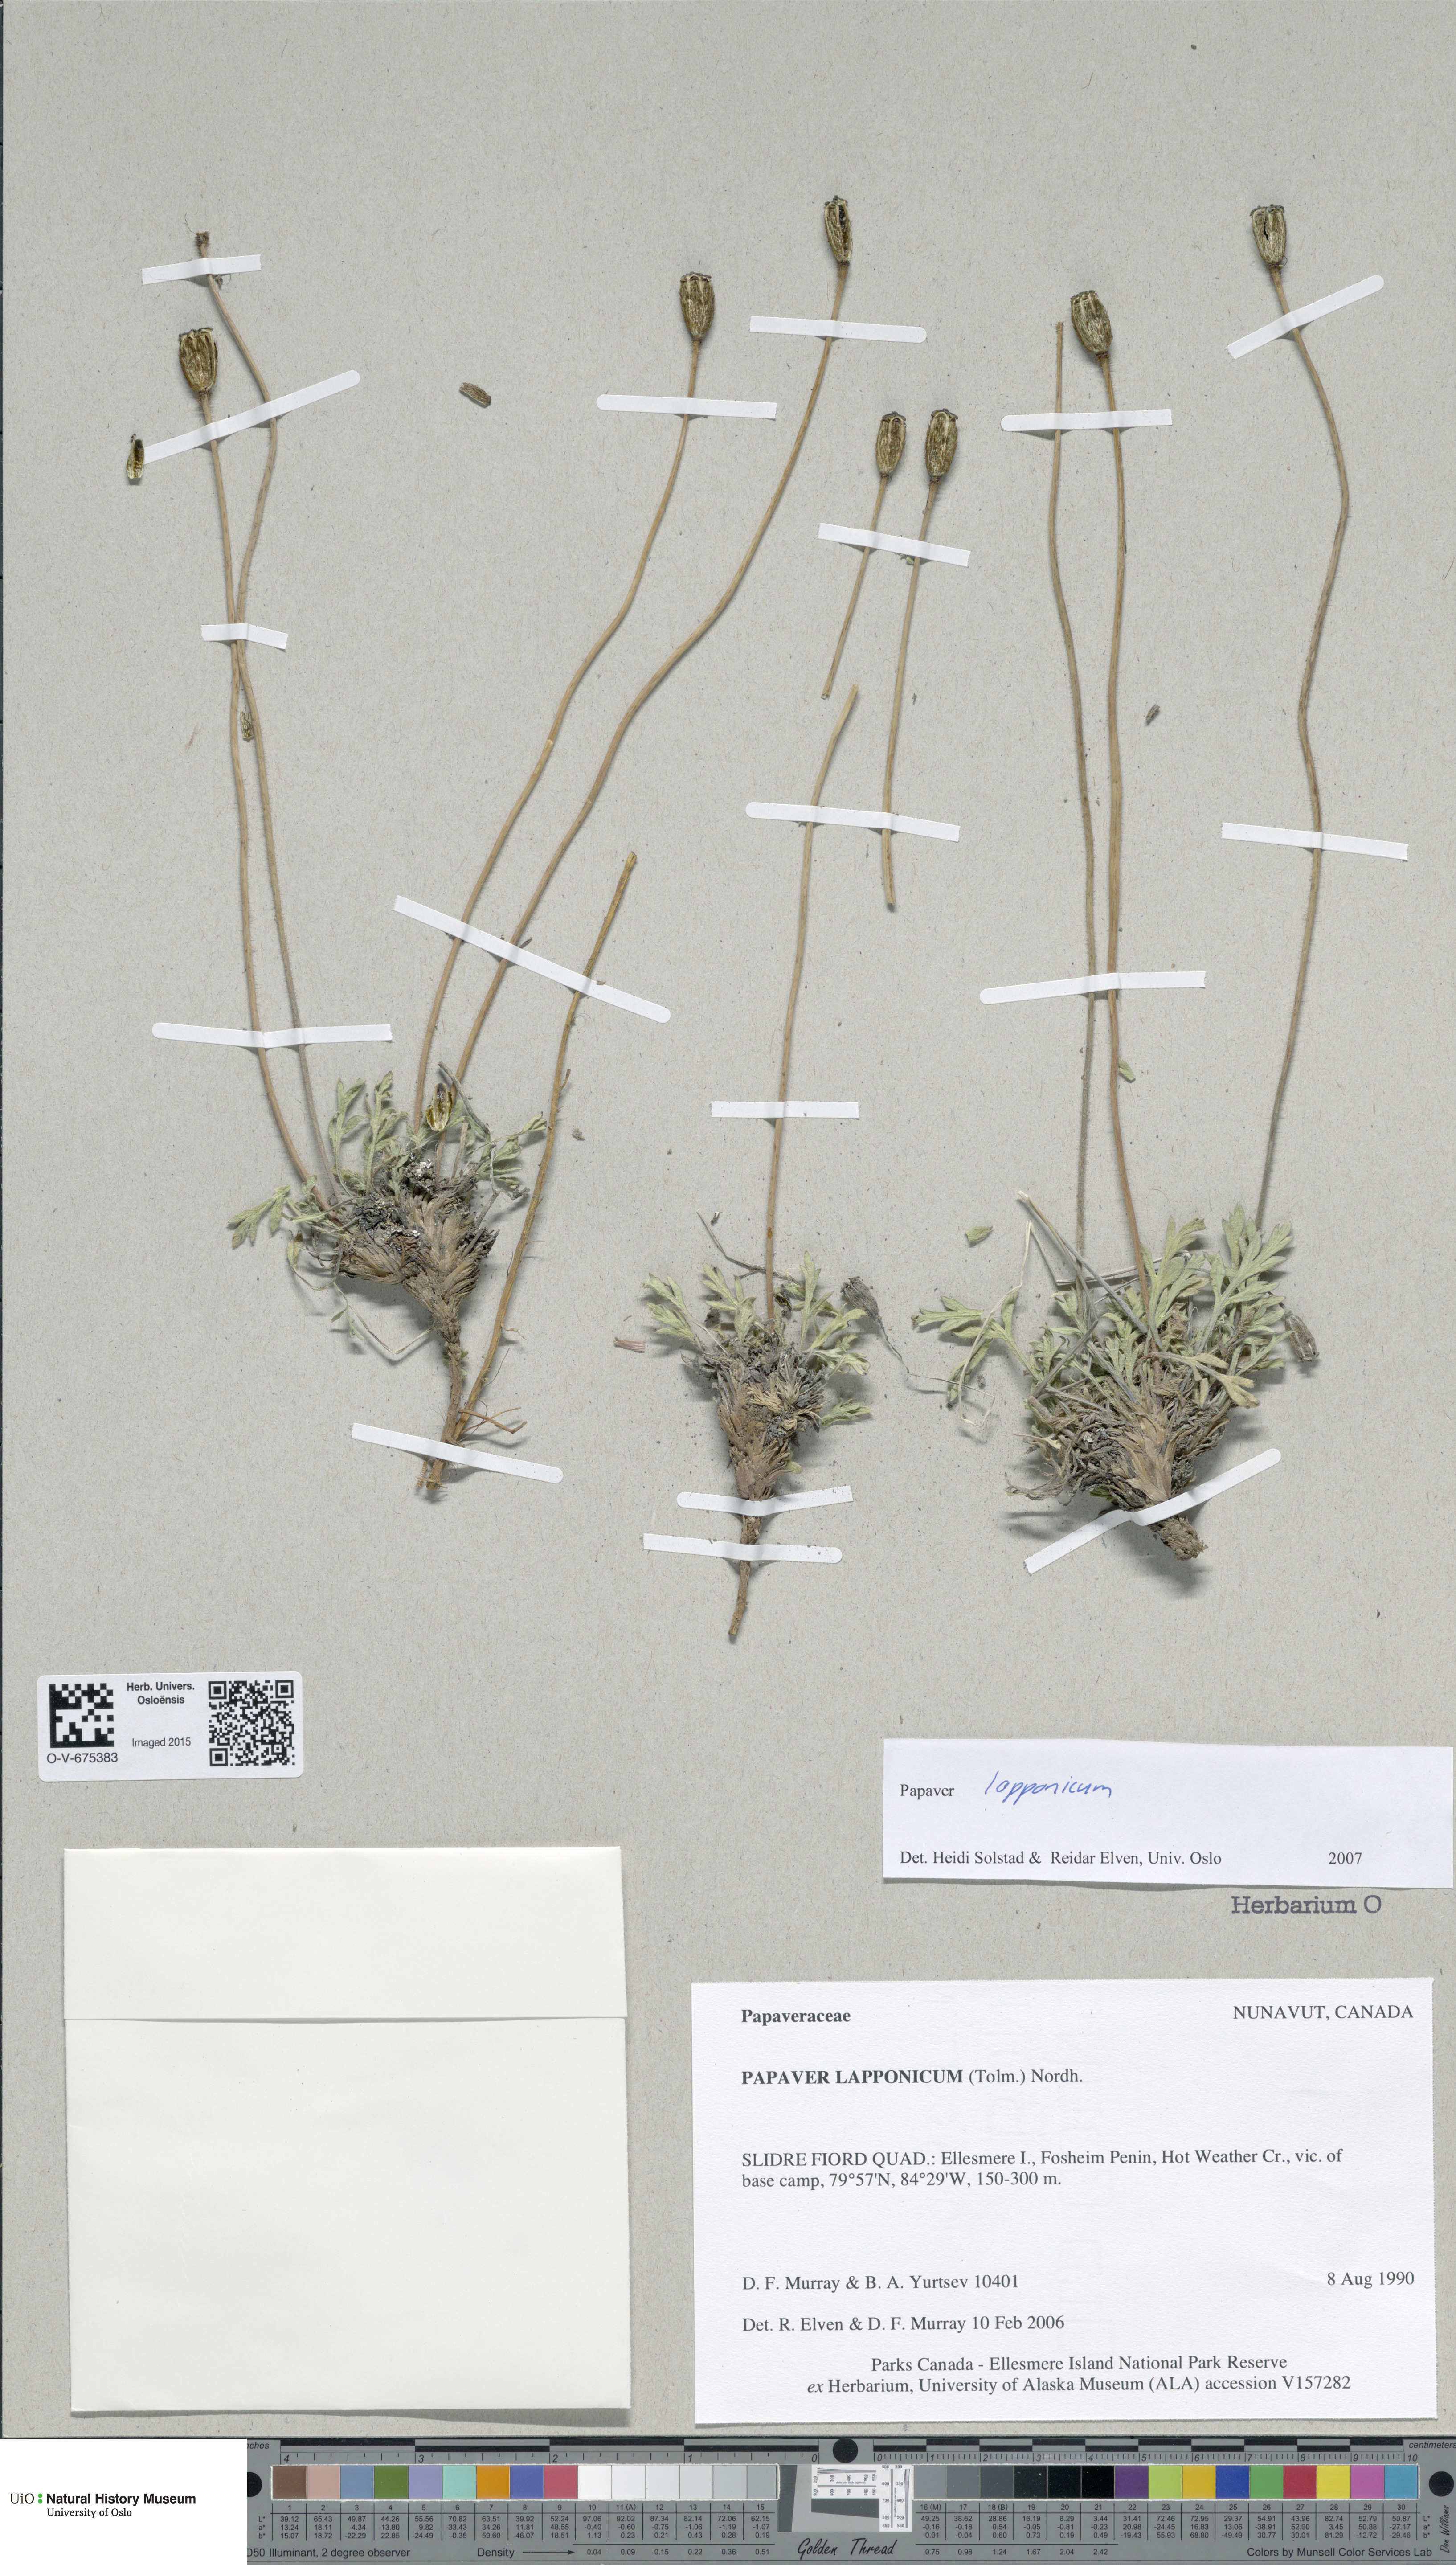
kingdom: Plantae
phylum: Tracheophyta
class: Magnoliopsida
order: Ranunculales
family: Papaveraceae
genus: Papaver
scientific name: Papaver lapponicum
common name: Lapland poppy
